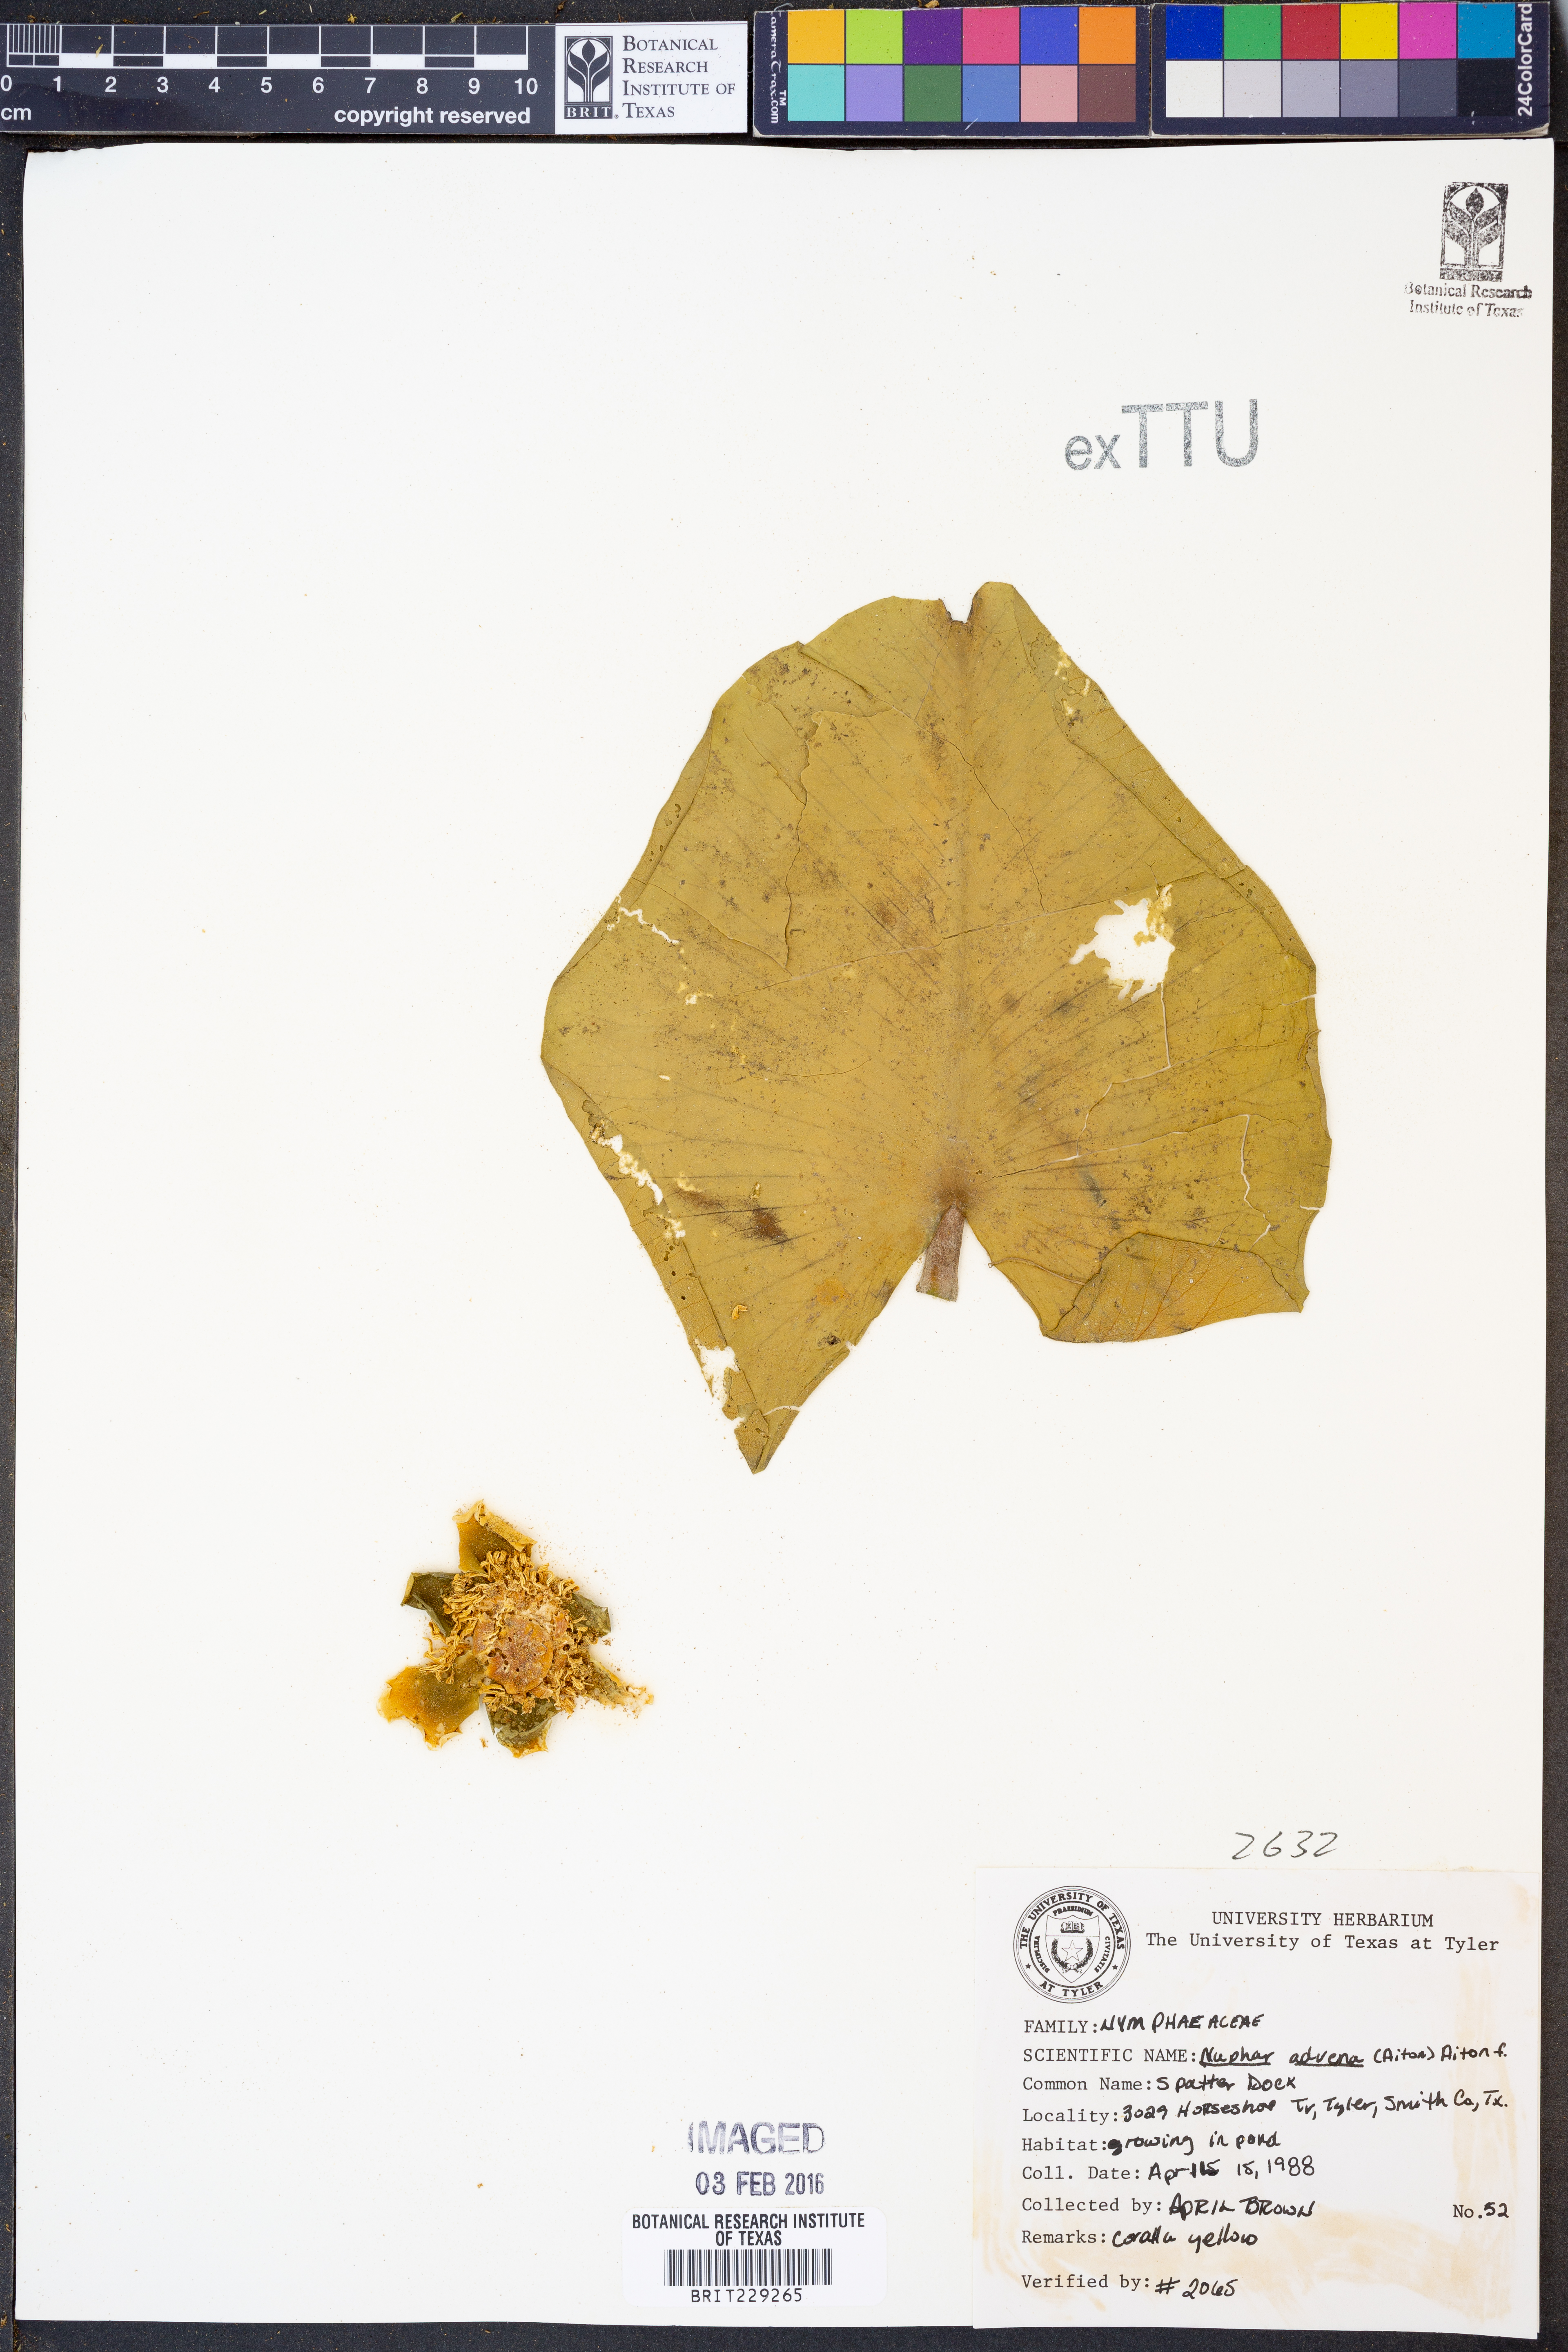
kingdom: Plantae
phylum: Tracheophyta
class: Magnoliopsida
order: Nymphaeales
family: Nymphaeaceae
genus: Nuphar
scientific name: Nuphar advena
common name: Spatter-dock
